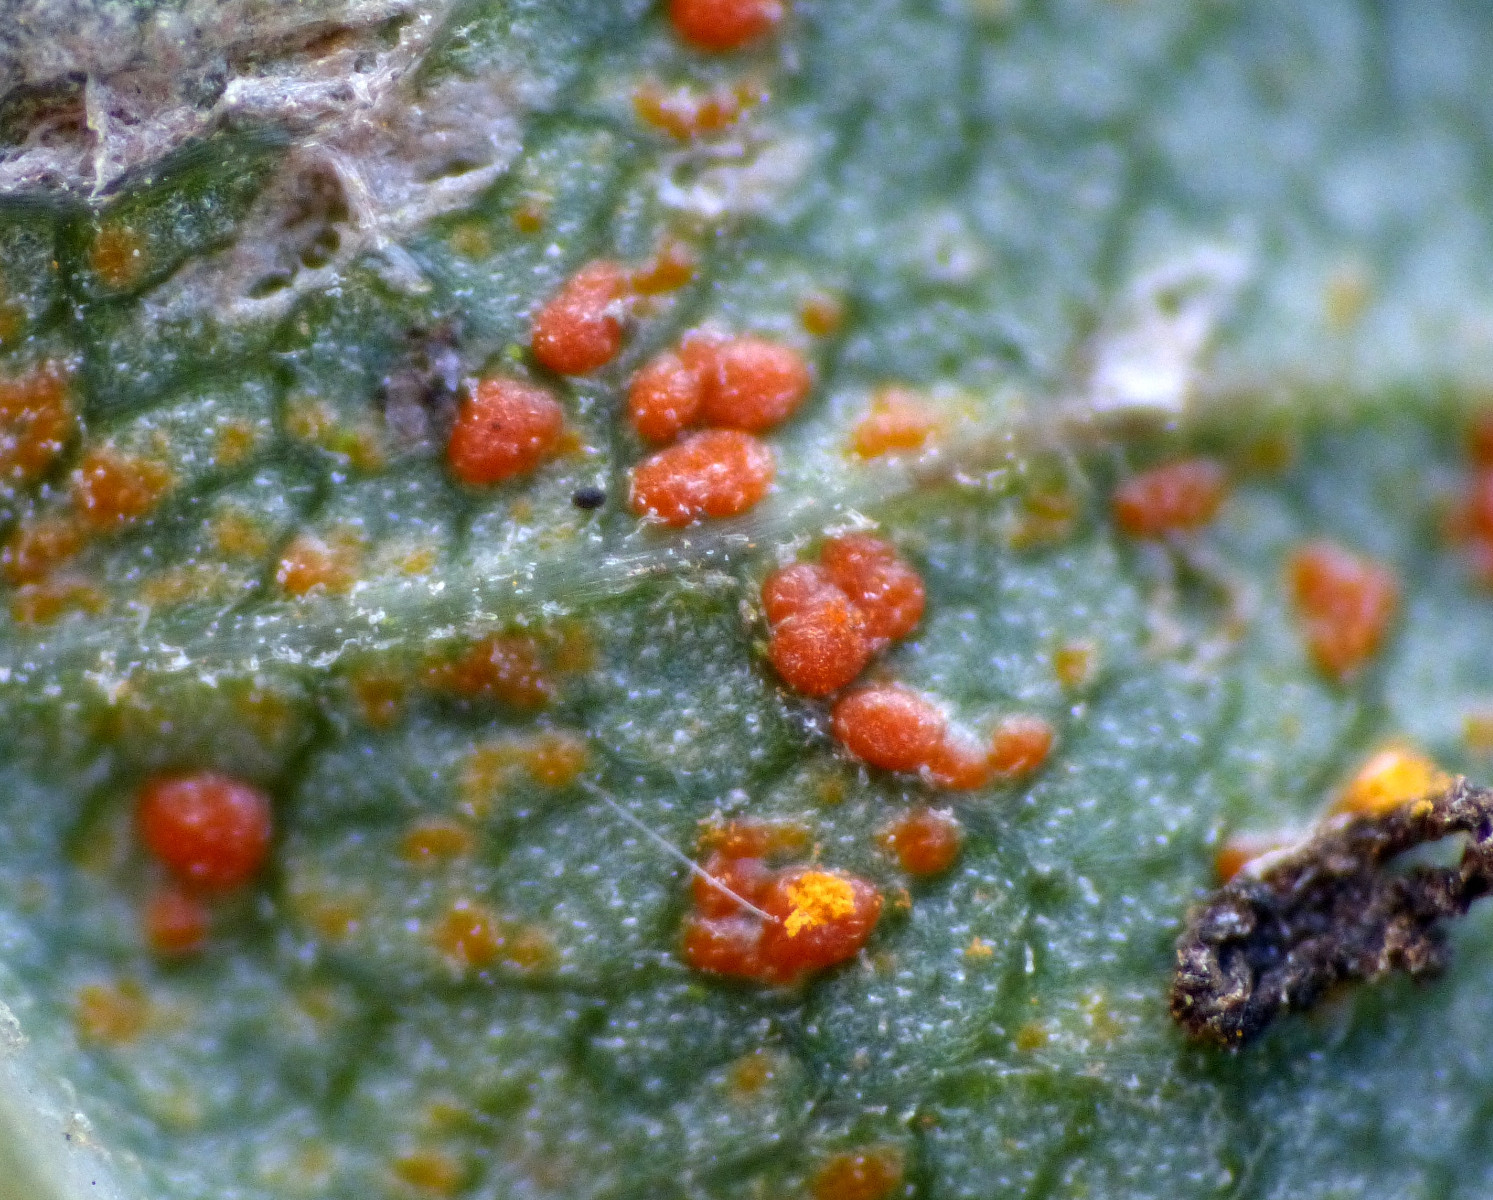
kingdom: Fungi
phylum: Basidiomycota
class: Pucciniomycetes
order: Pucciniales
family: Coleosporiaceae
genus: Coleosporium
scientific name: Coleosporium senecionis
